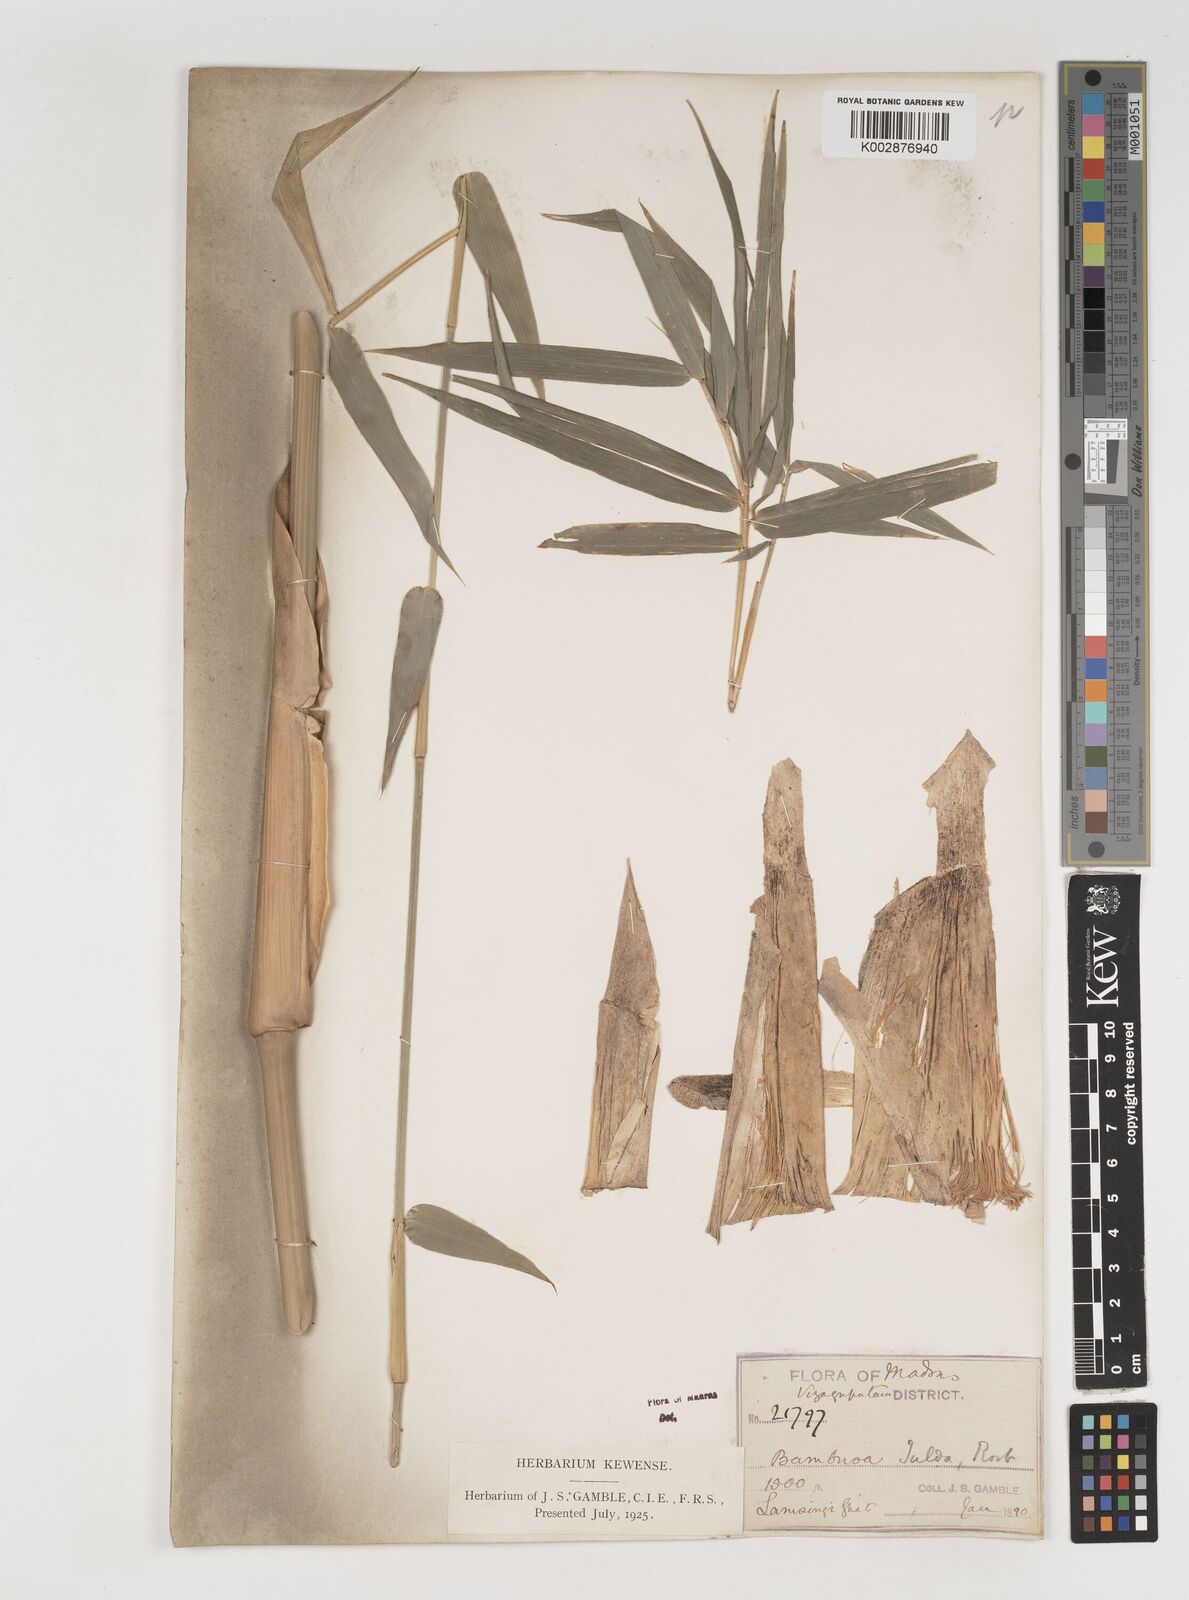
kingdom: Plantae
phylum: Tracheophyta
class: Liliopsida
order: Poales
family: Poaceae
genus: Bambusa
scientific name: Bambusa tulda
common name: Bengal bamboo
